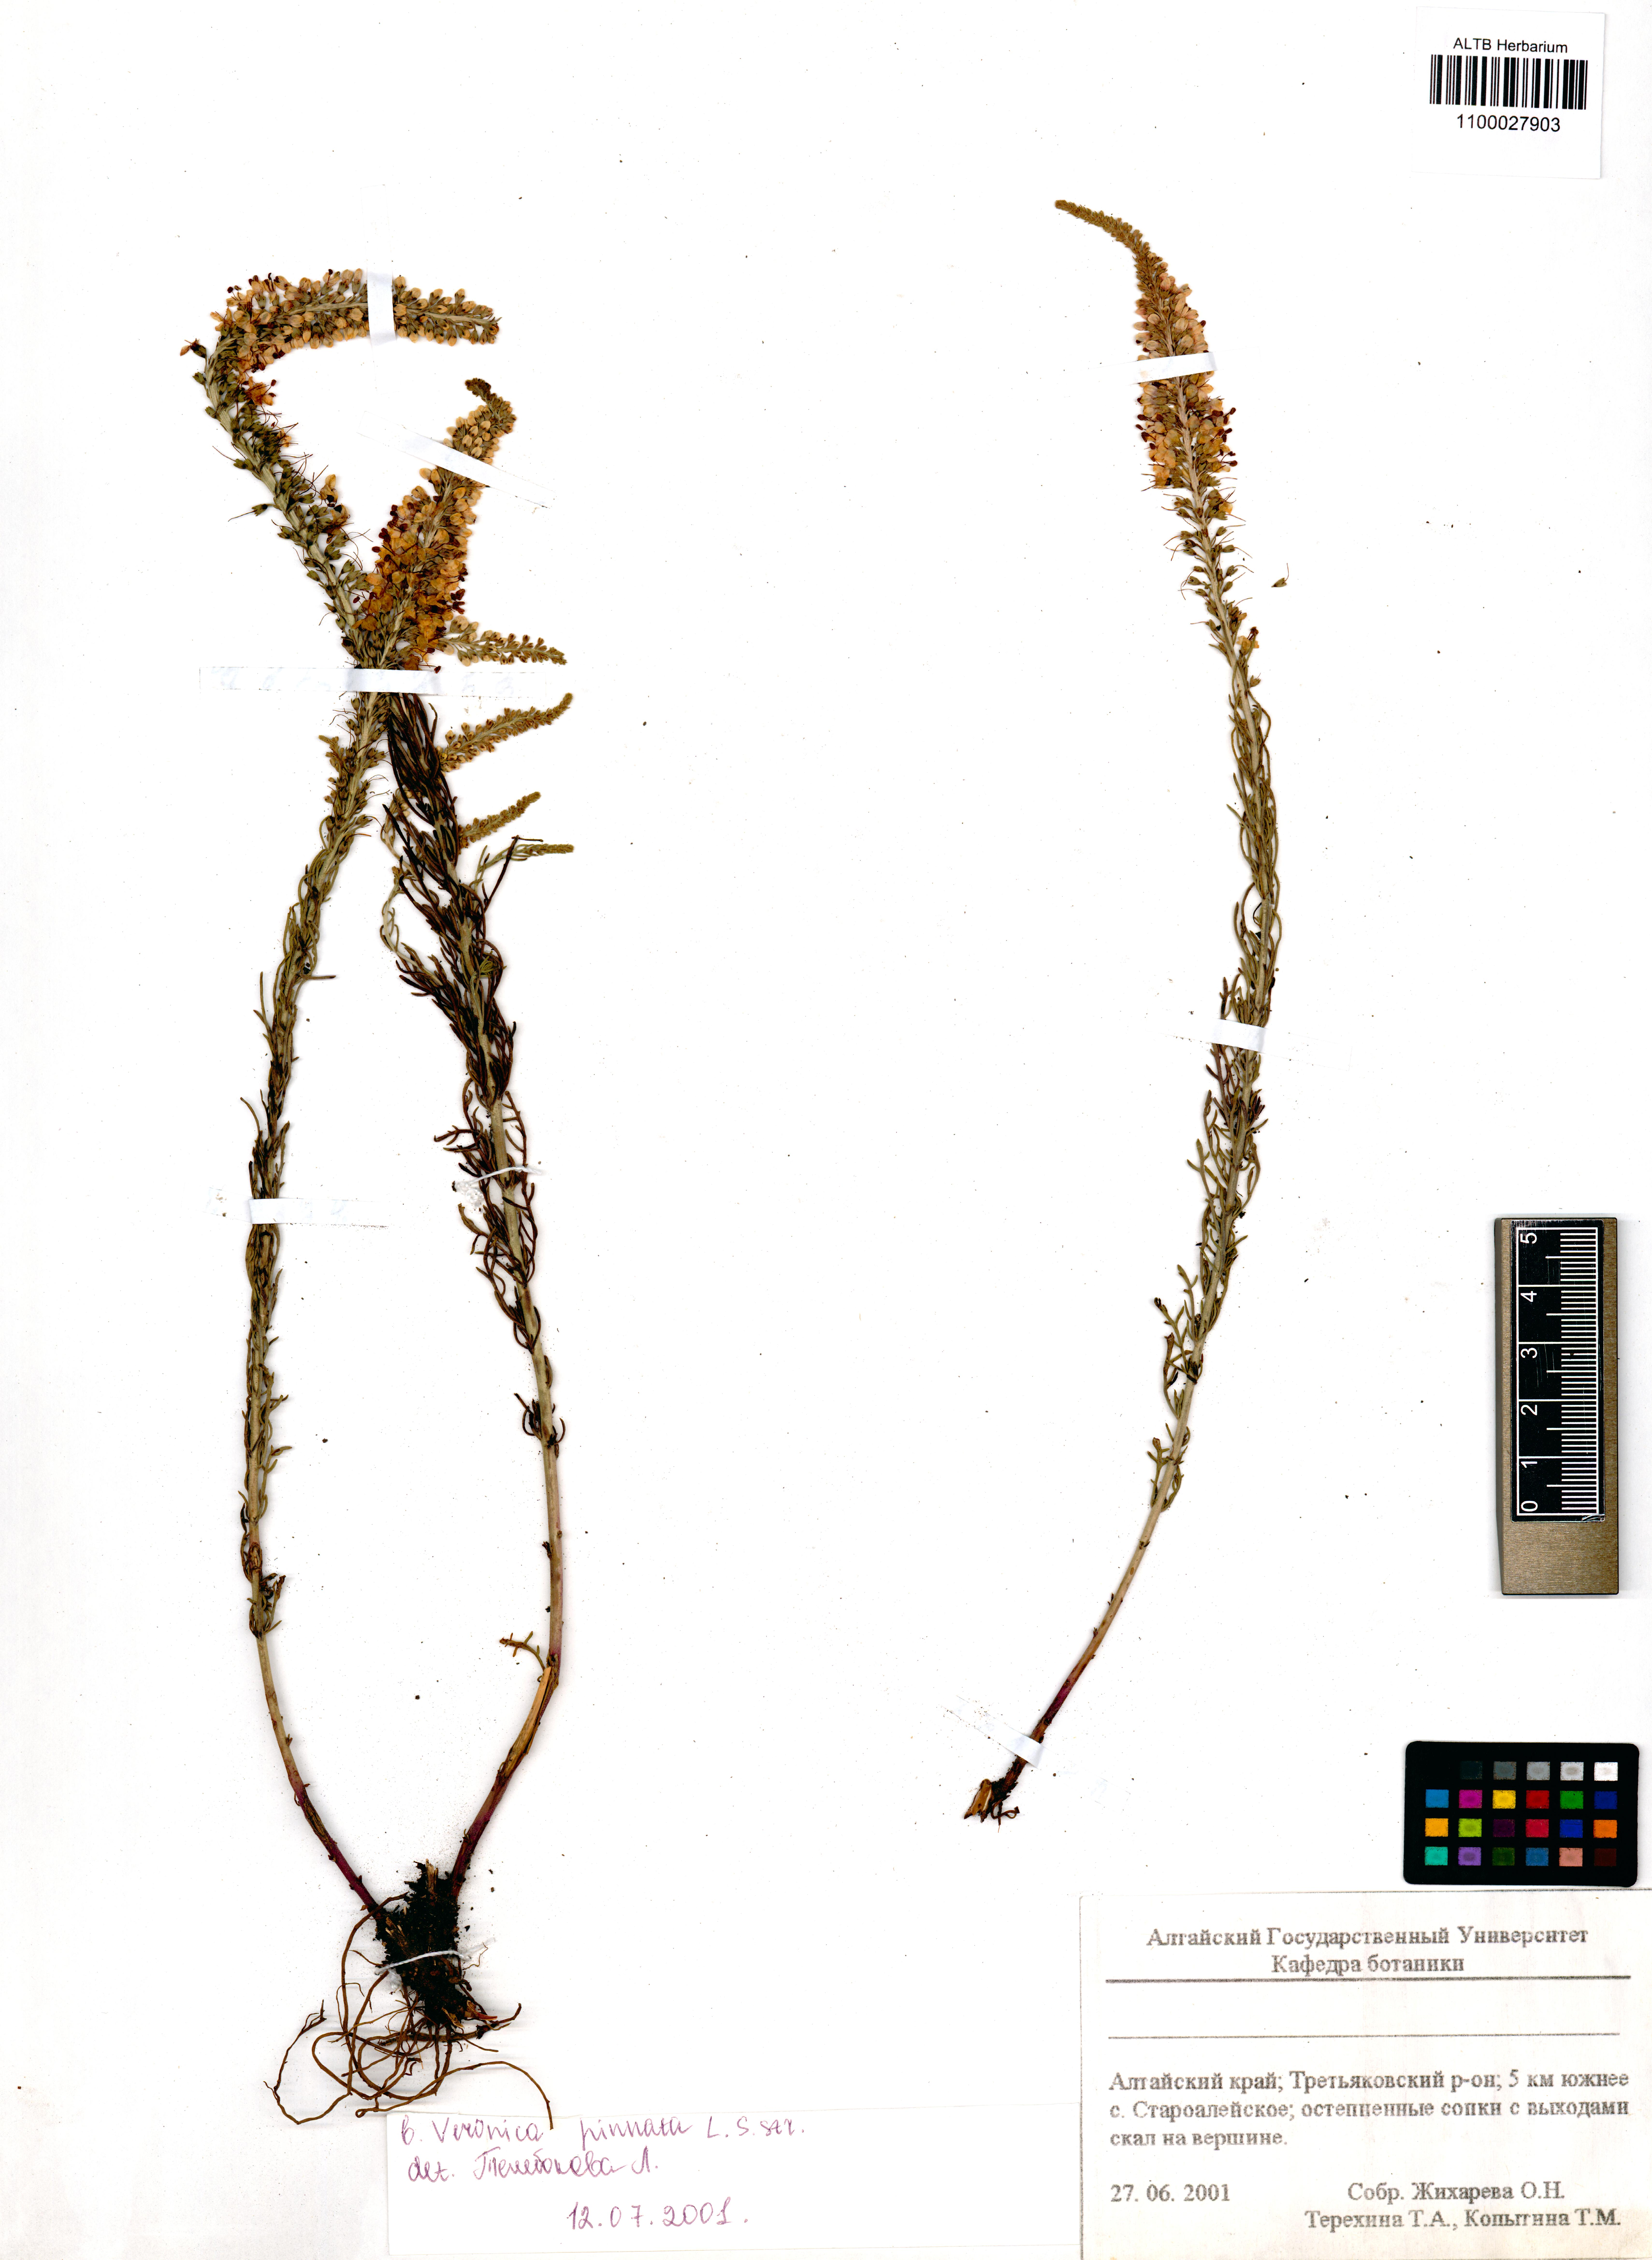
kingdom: Plantae
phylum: Tracheophyta
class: Magnoliopsida
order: Lamiales
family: Plantaginaceae
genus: Veronica
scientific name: Veronica pinnata
